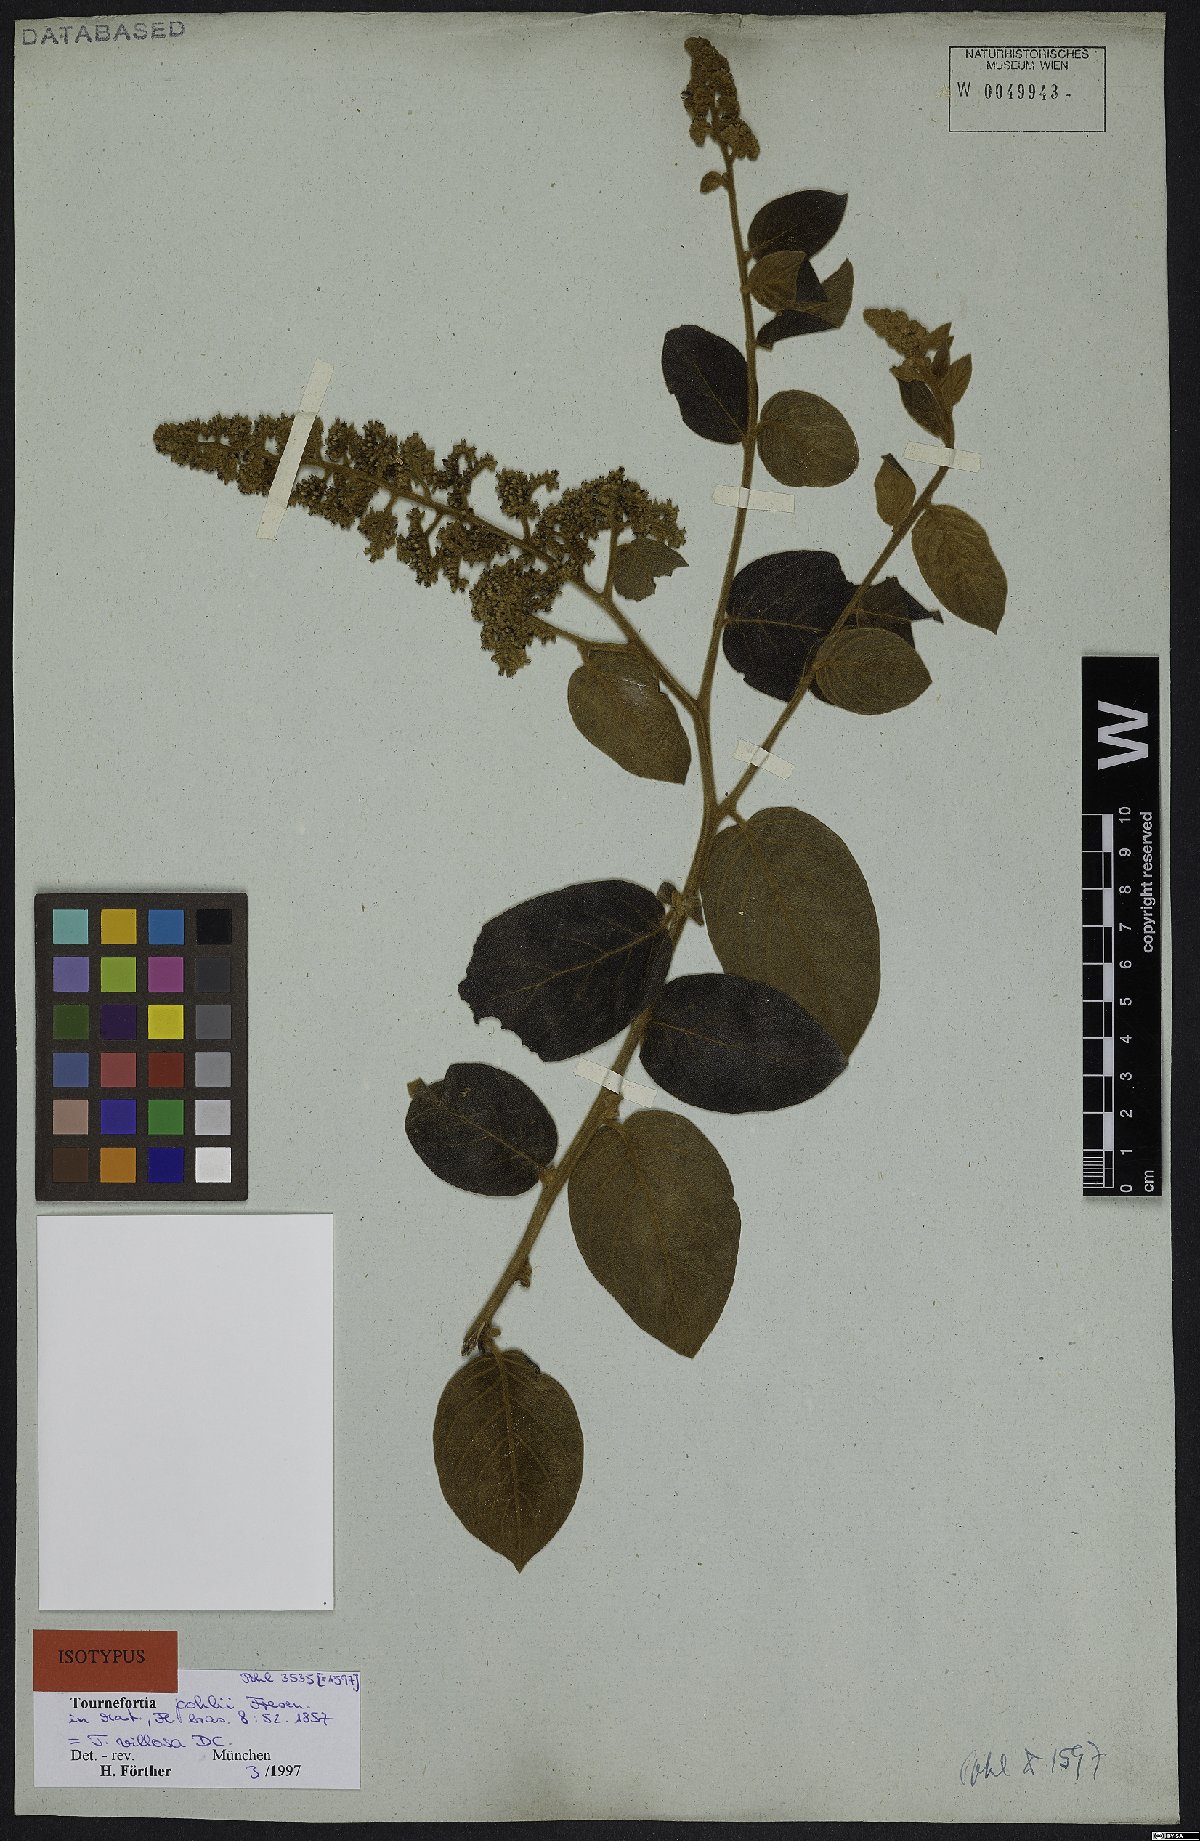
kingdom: Plantae
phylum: Tracheophyta
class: Magnoliopsida
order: Boraginales
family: Heliotropiaceae
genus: Tournefortia
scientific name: Tournefortia villosa
